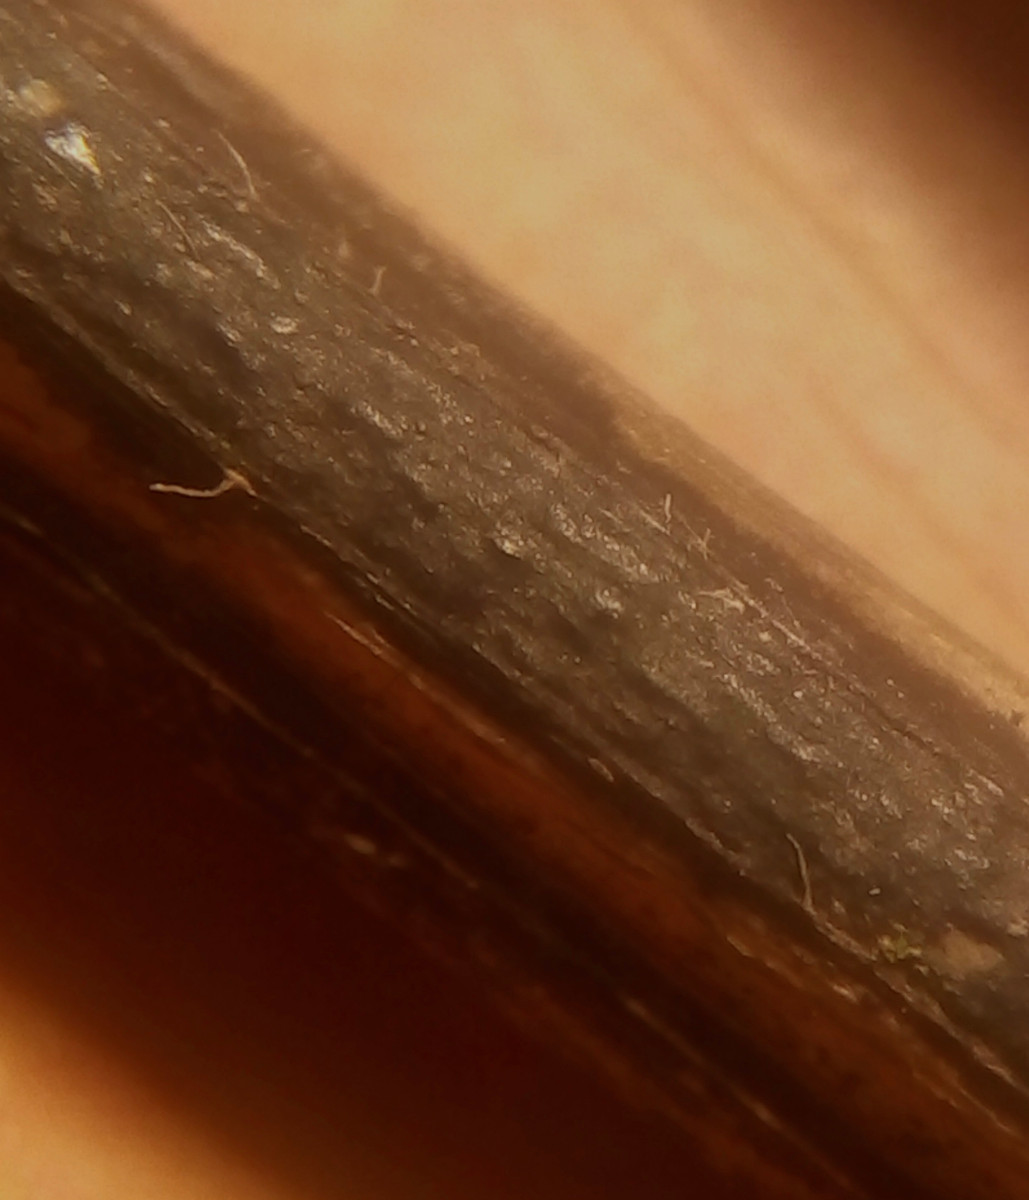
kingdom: Fungi
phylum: Ascomycota
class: Sordariomycetes
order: Diaporthales
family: Diaporthaceae
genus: Diaporthopsis
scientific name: Diaporthopsis urticae
